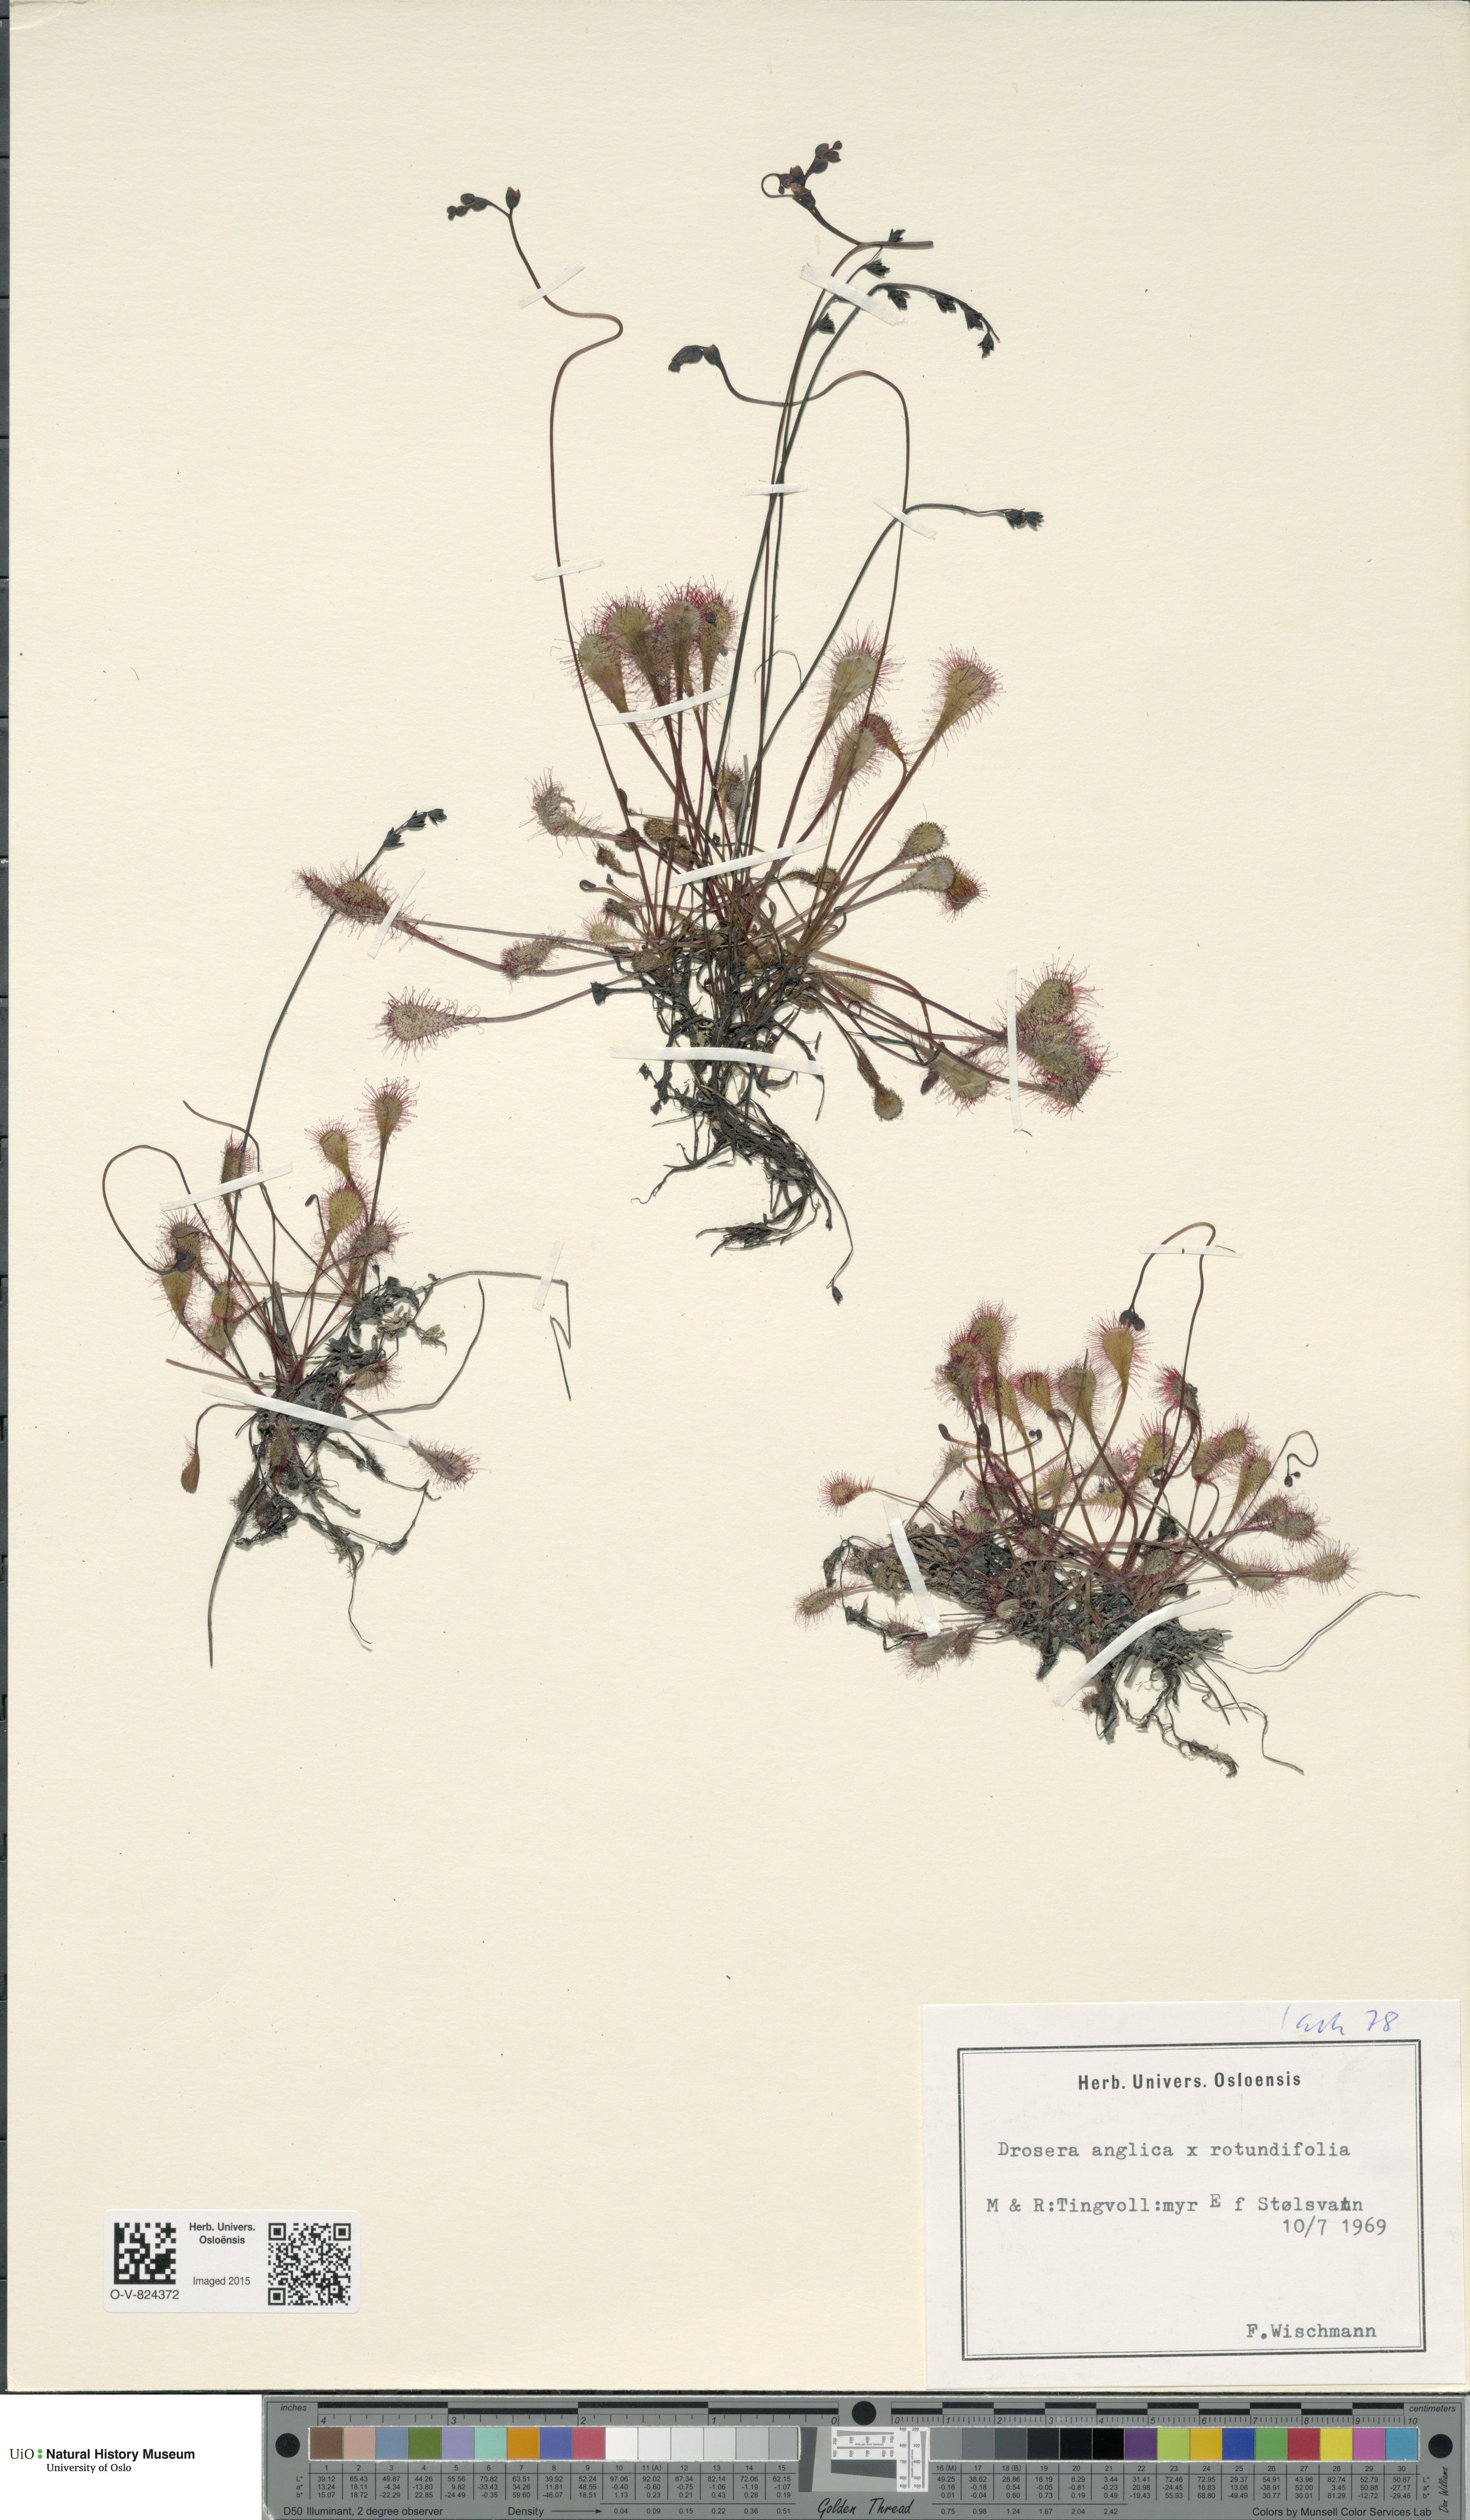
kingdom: Plantae
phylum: Tracheophyta
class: Magnoliopsida
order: Caryophyllales
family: Droseraceae
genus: Drosera
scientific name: Drosera
